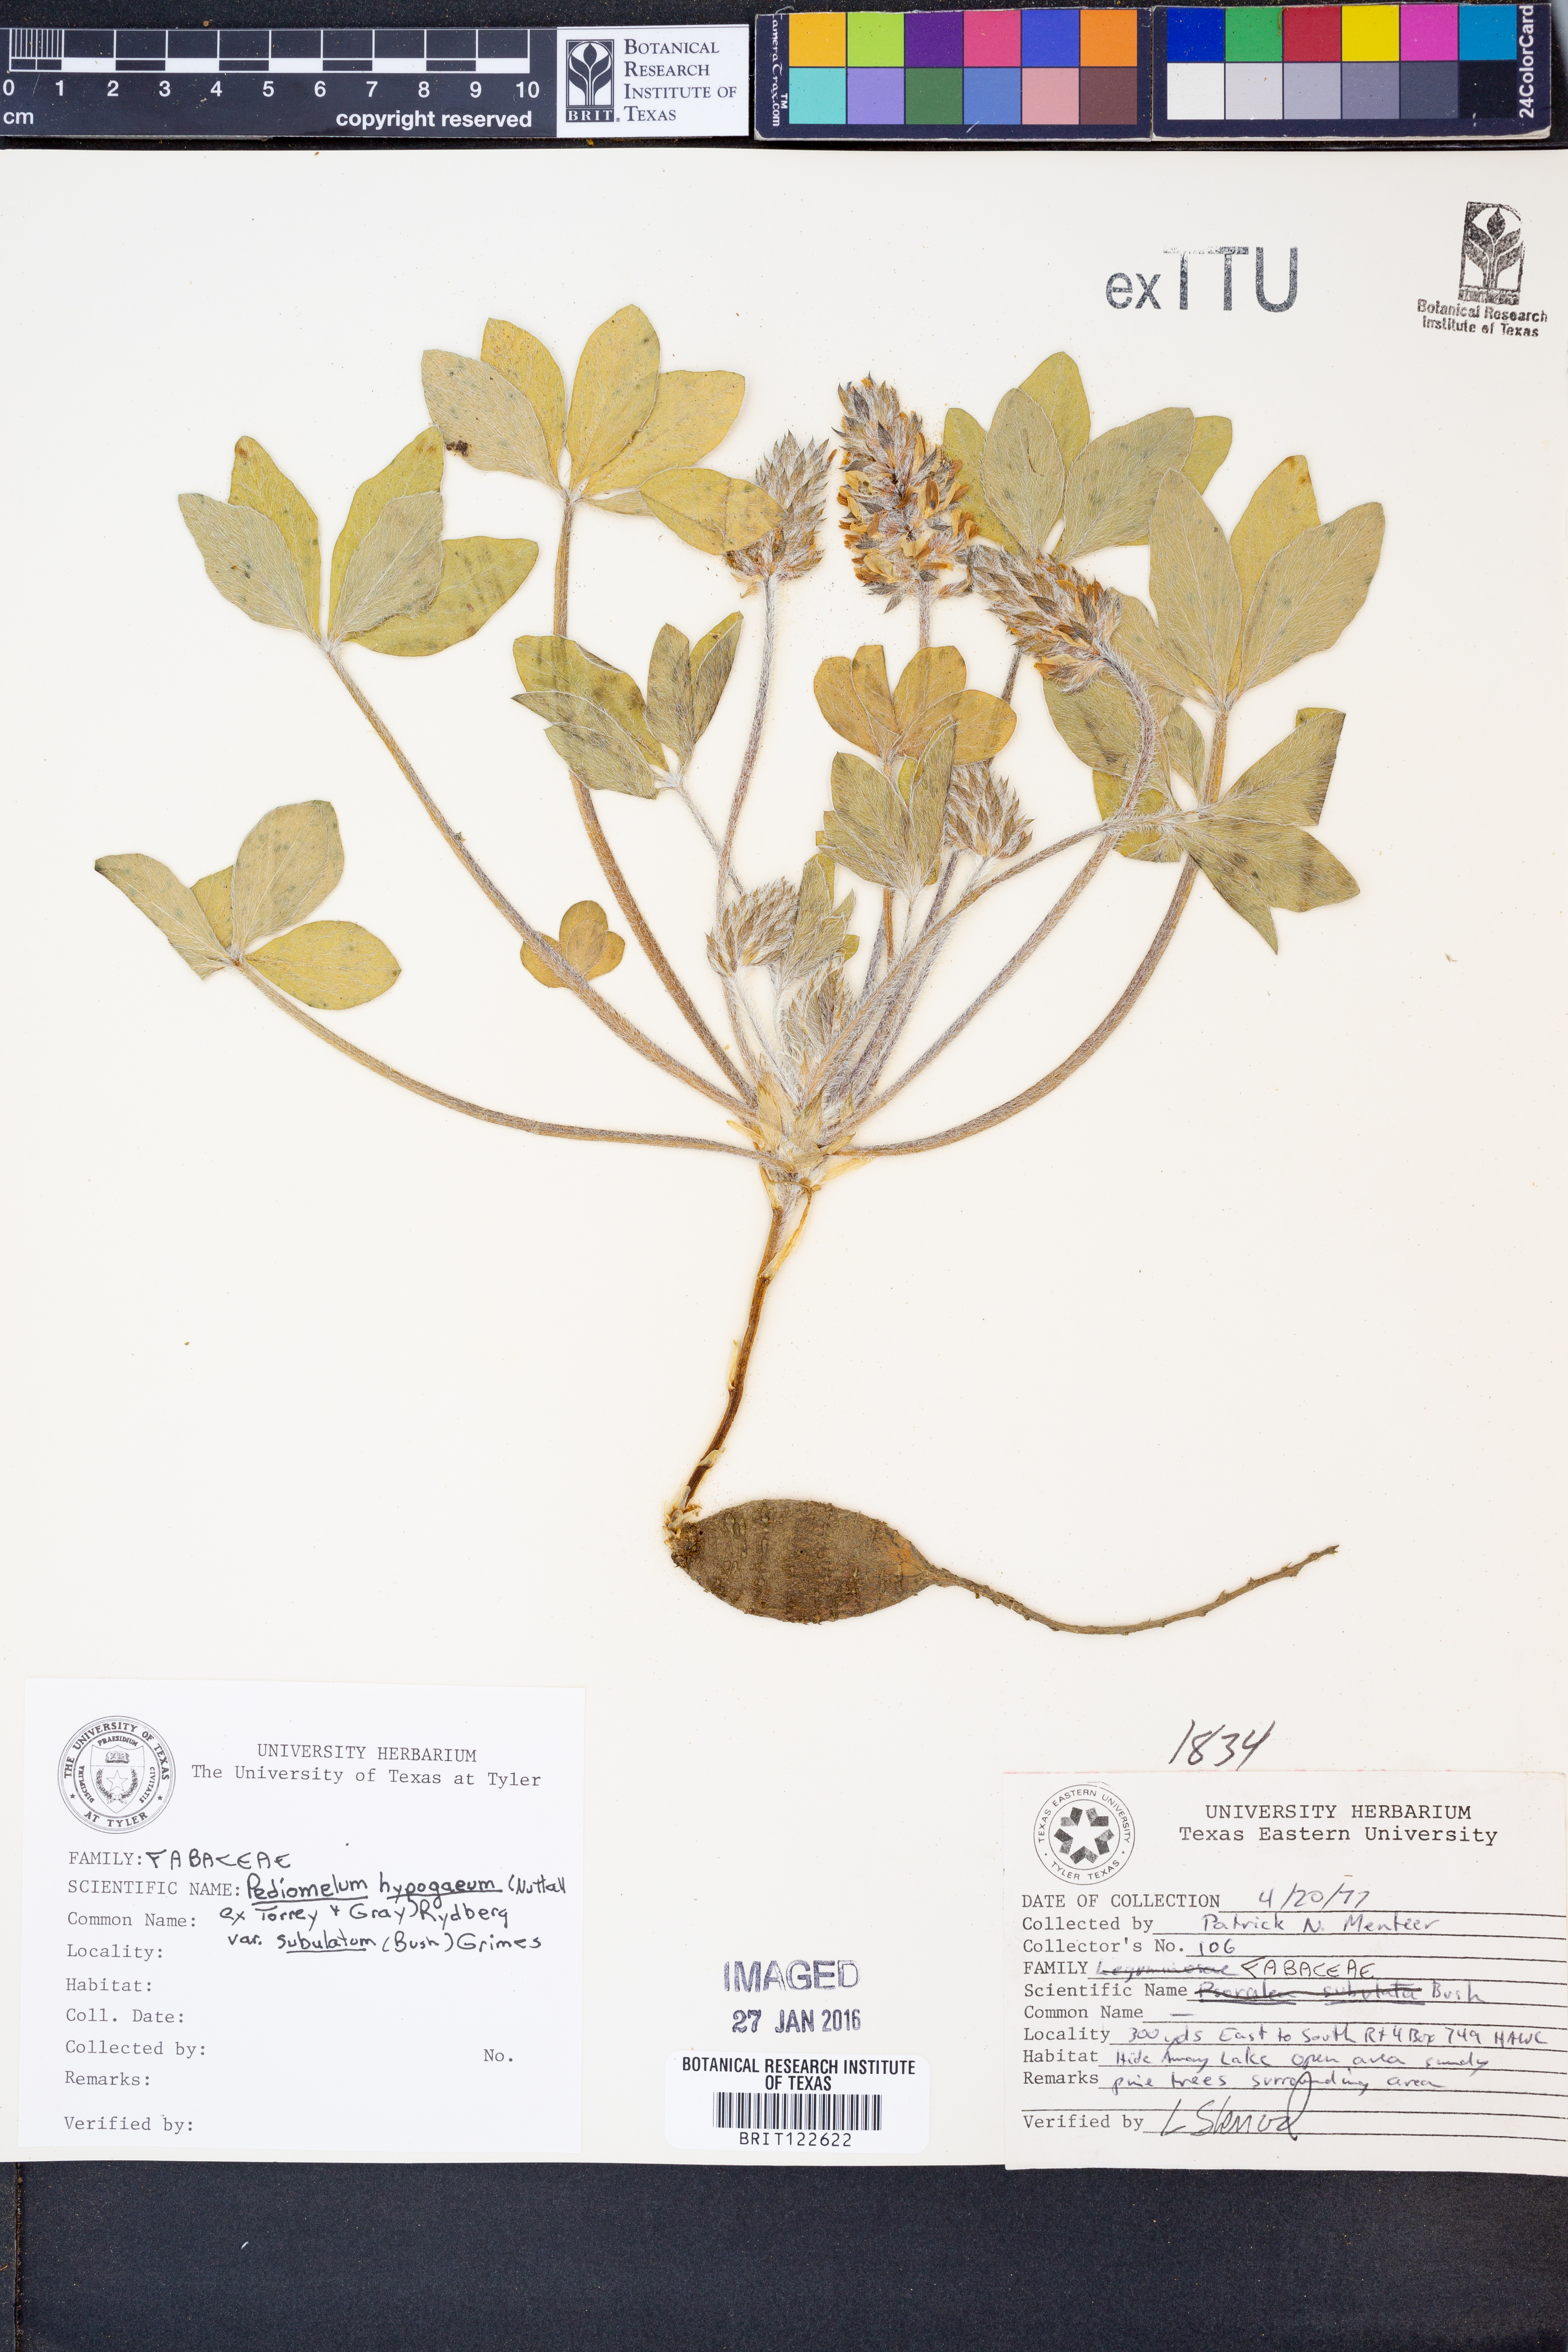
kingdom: Plantae
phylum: Tracheophyta
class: Magnoliopsida
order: Fabales
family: Fabaceae
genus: Pediomelum
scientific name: Pediomelum hypogaeum
